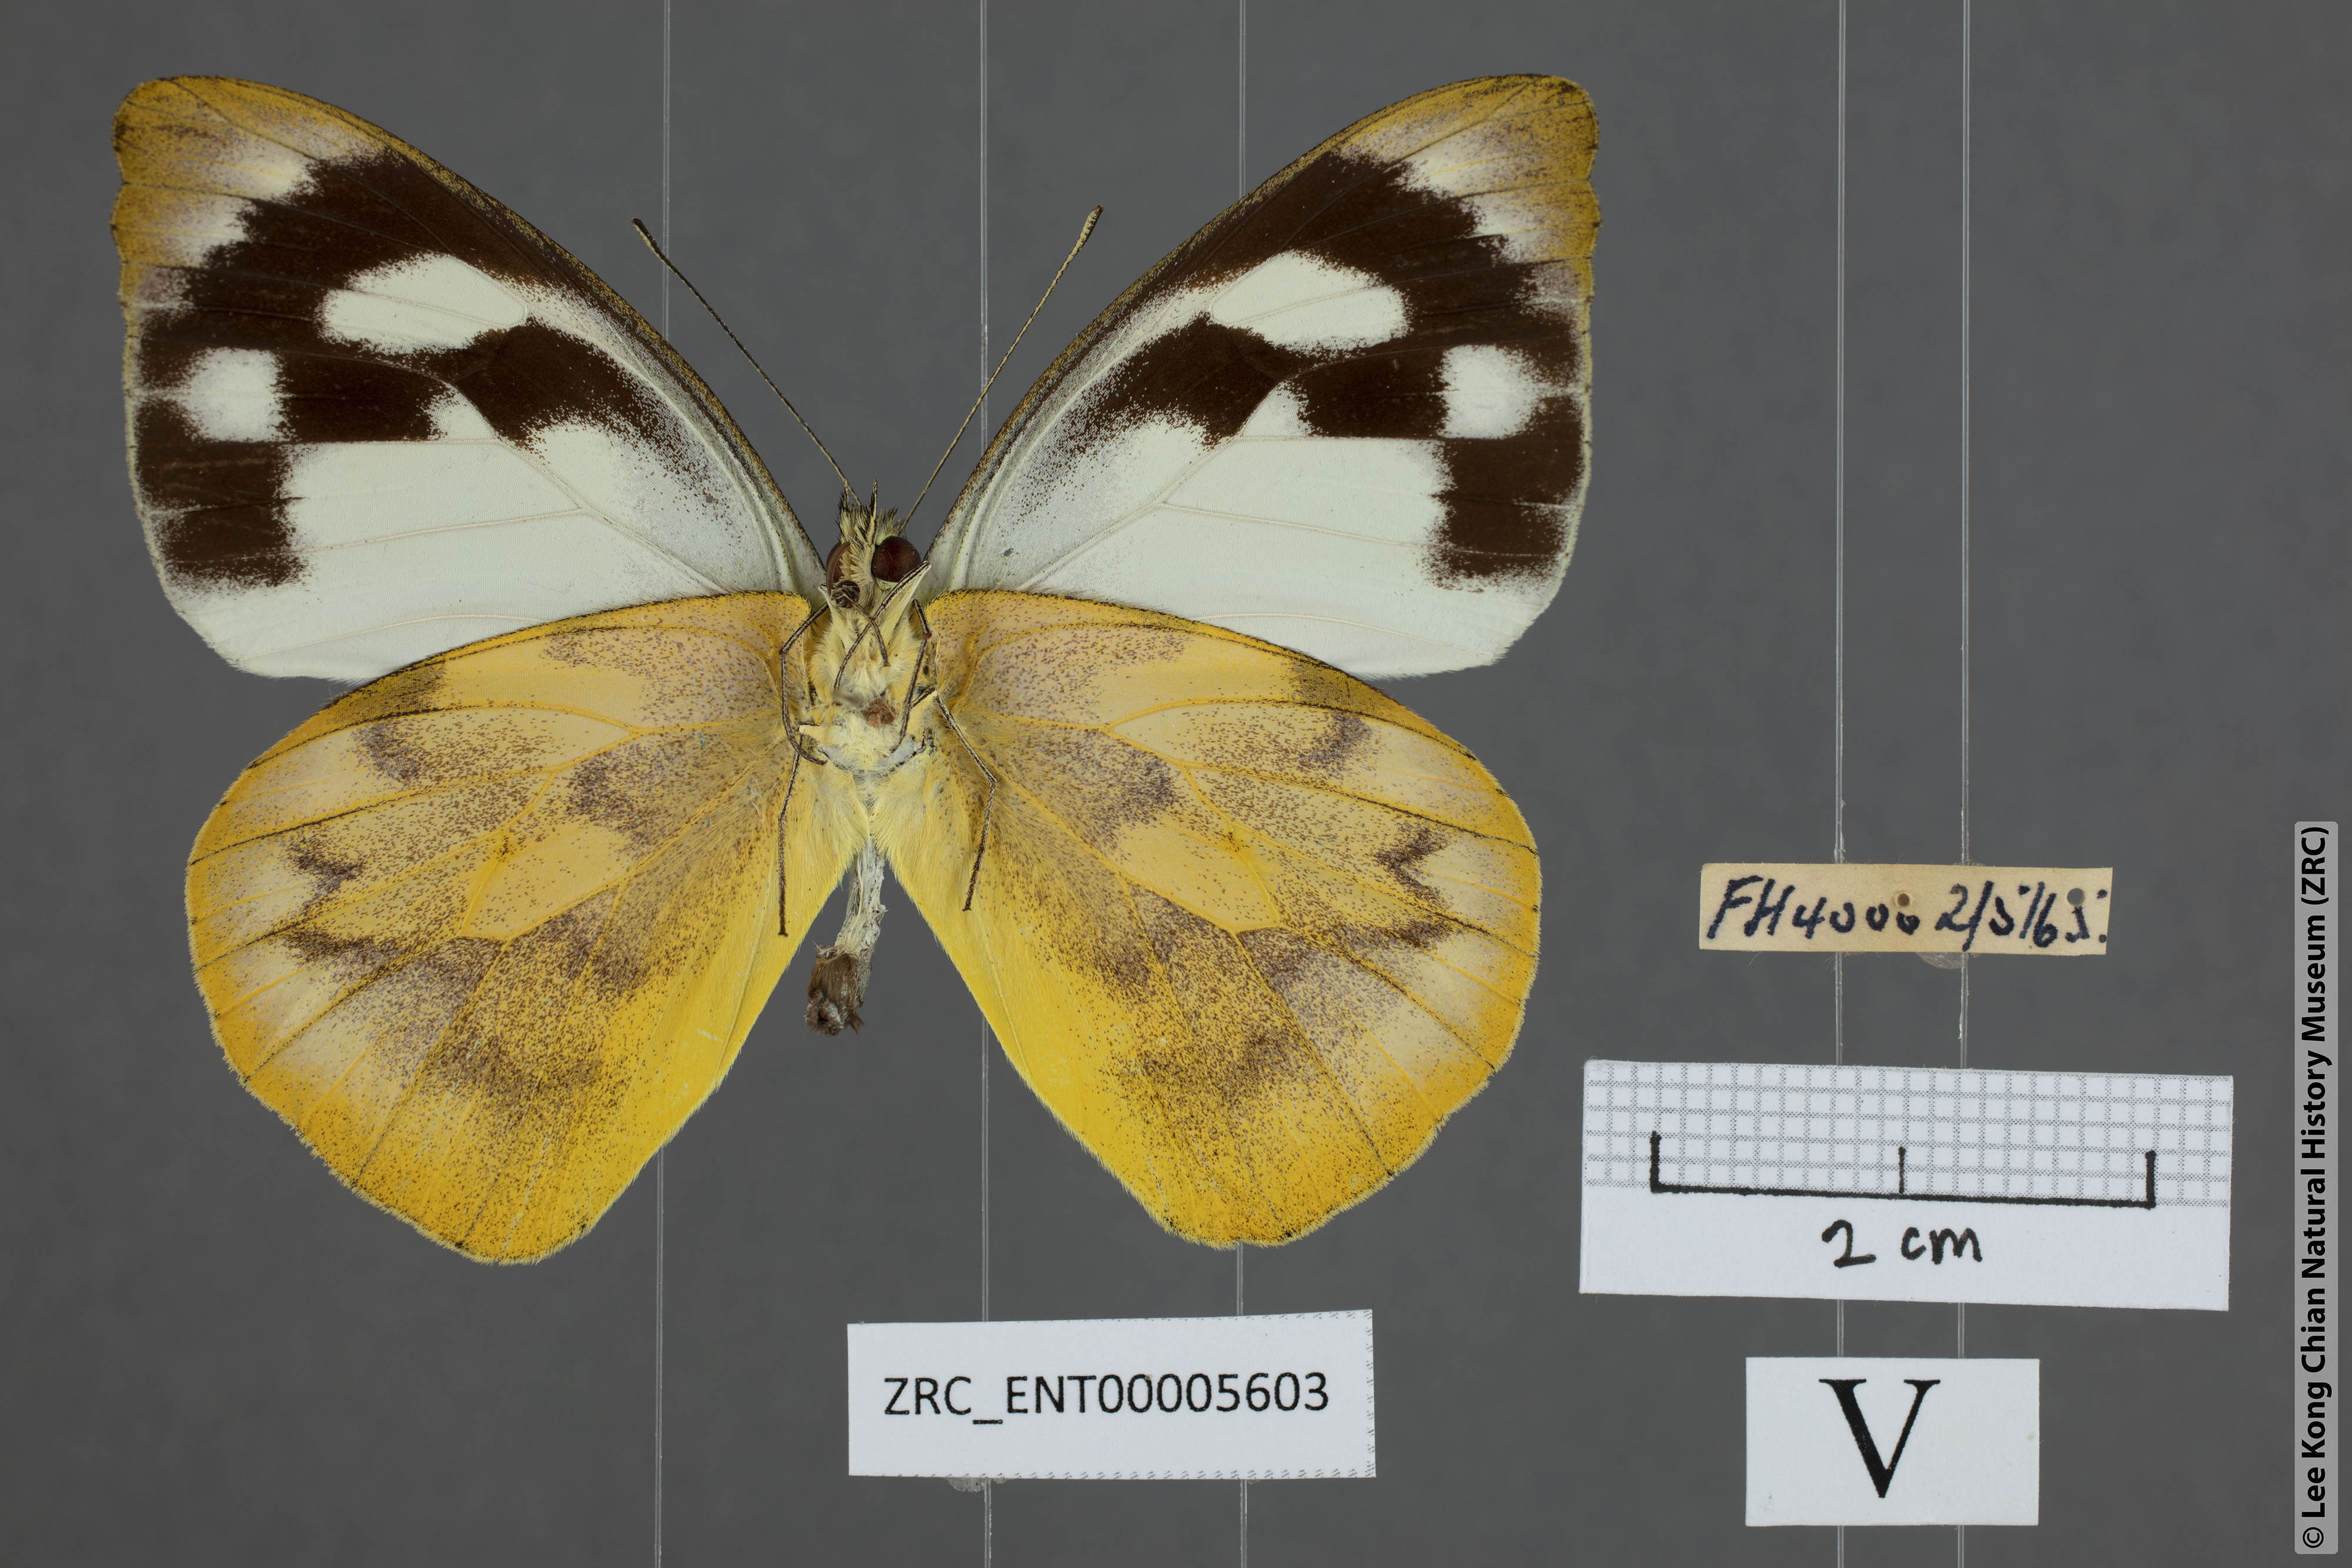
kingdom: Animalia
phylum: Arthropoda
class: Insecta
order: Lepidoptera
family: Pieridae
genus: Appias
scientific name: Appias pandione
